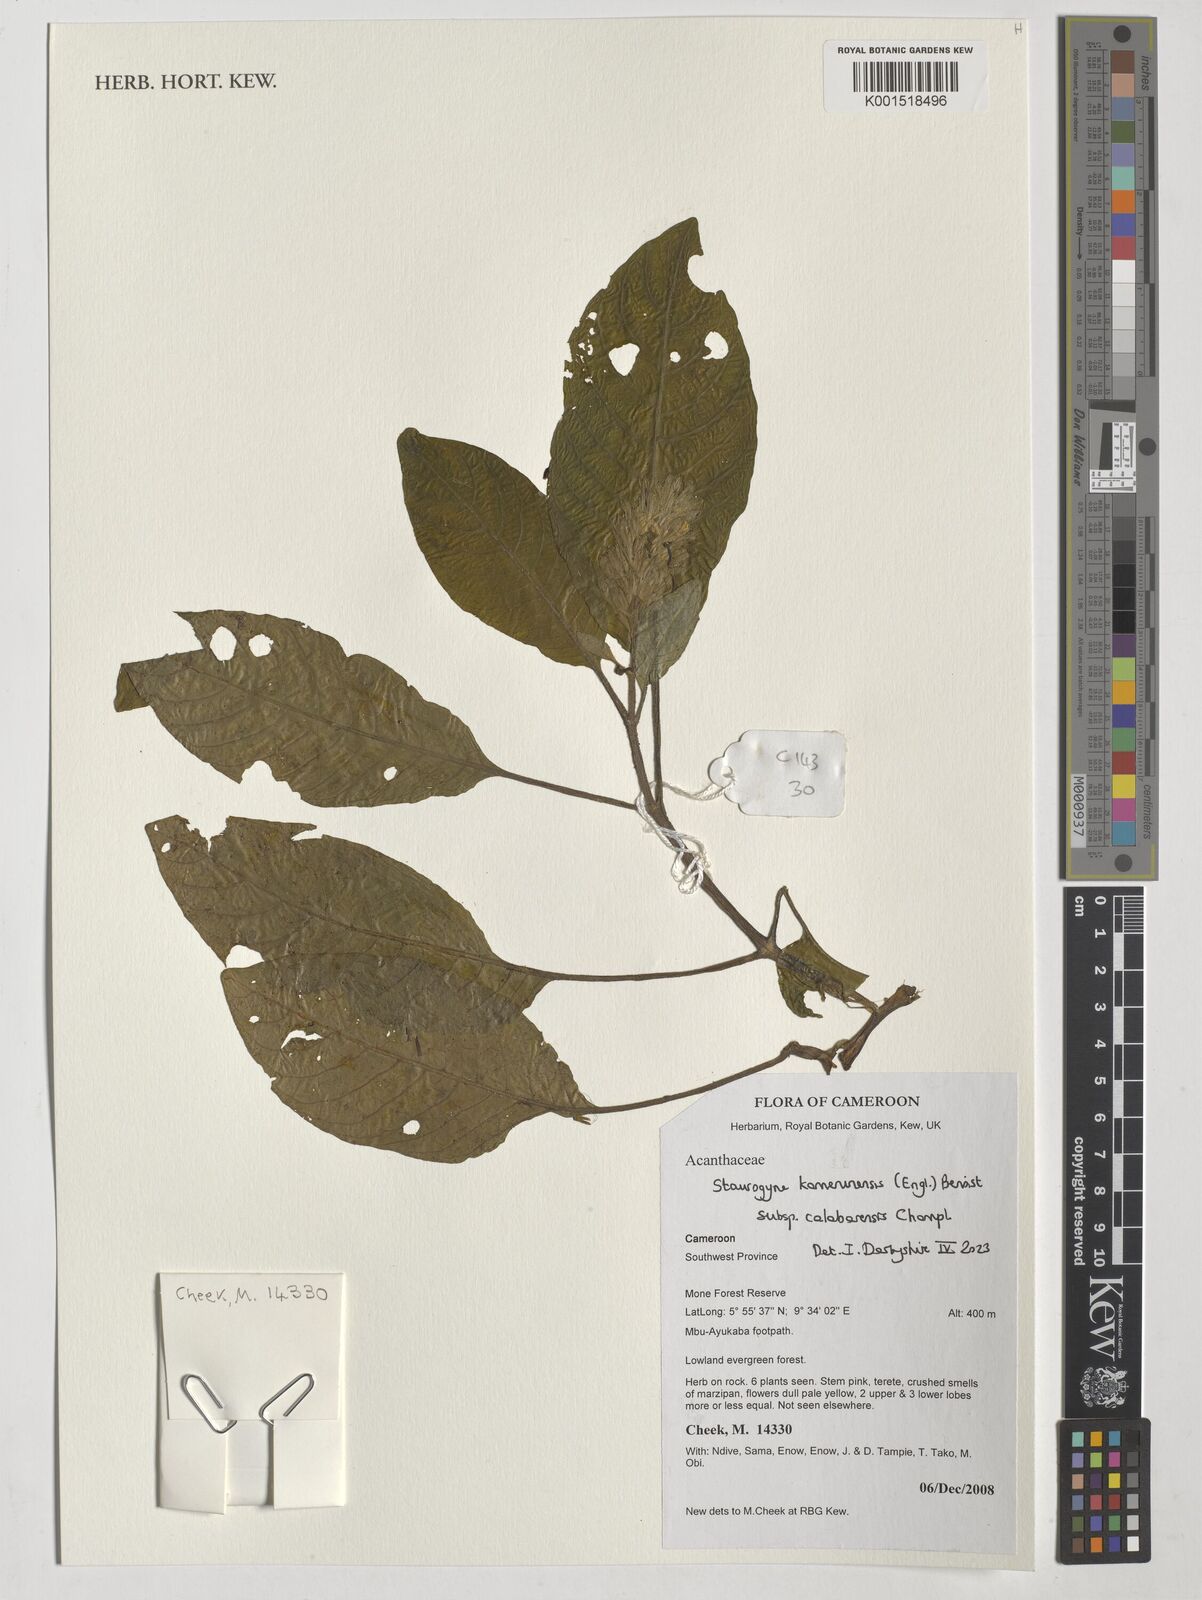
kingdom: Plantae
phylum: Tracheophyta
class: Magnoliopsida
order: Lamiales
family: Acanthaceae
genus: Staurogyne
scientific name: Staurogyne kamerunensis
